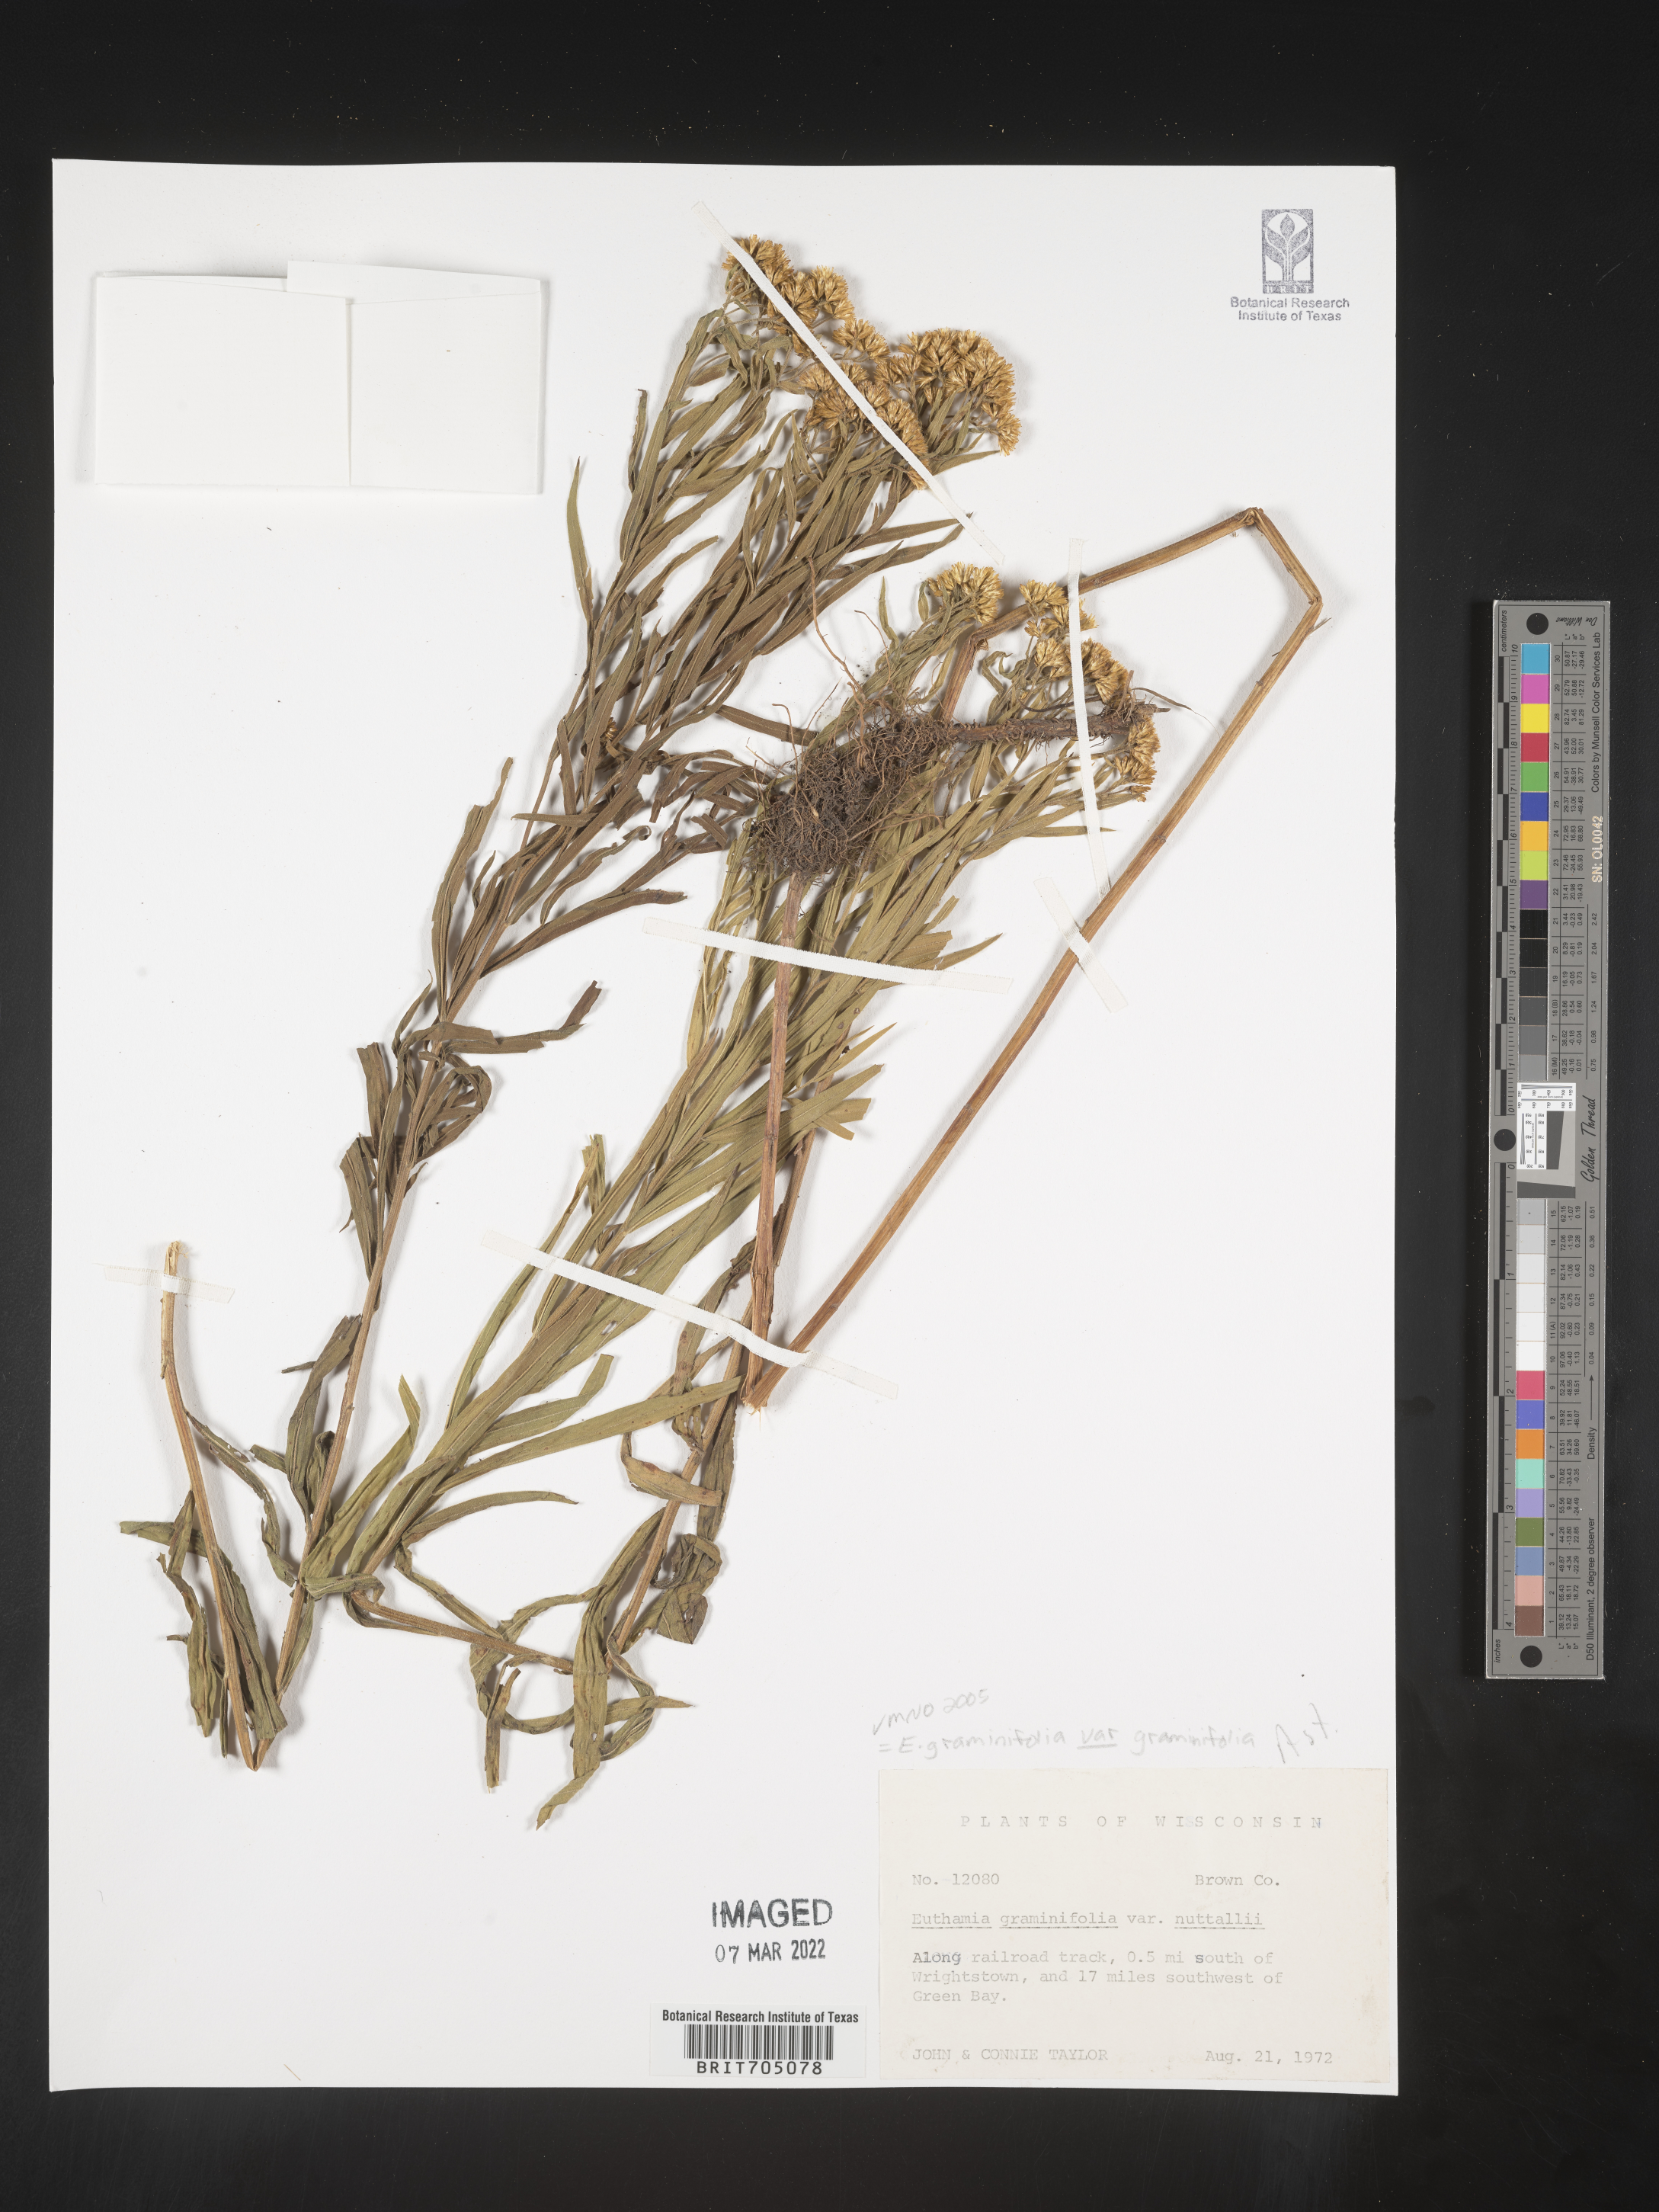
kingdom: Plantae
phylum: Tracheophyta
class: Magnoliopsida
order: Asterales
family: Asteraceae
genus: Euthamia
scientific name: Euthamia
